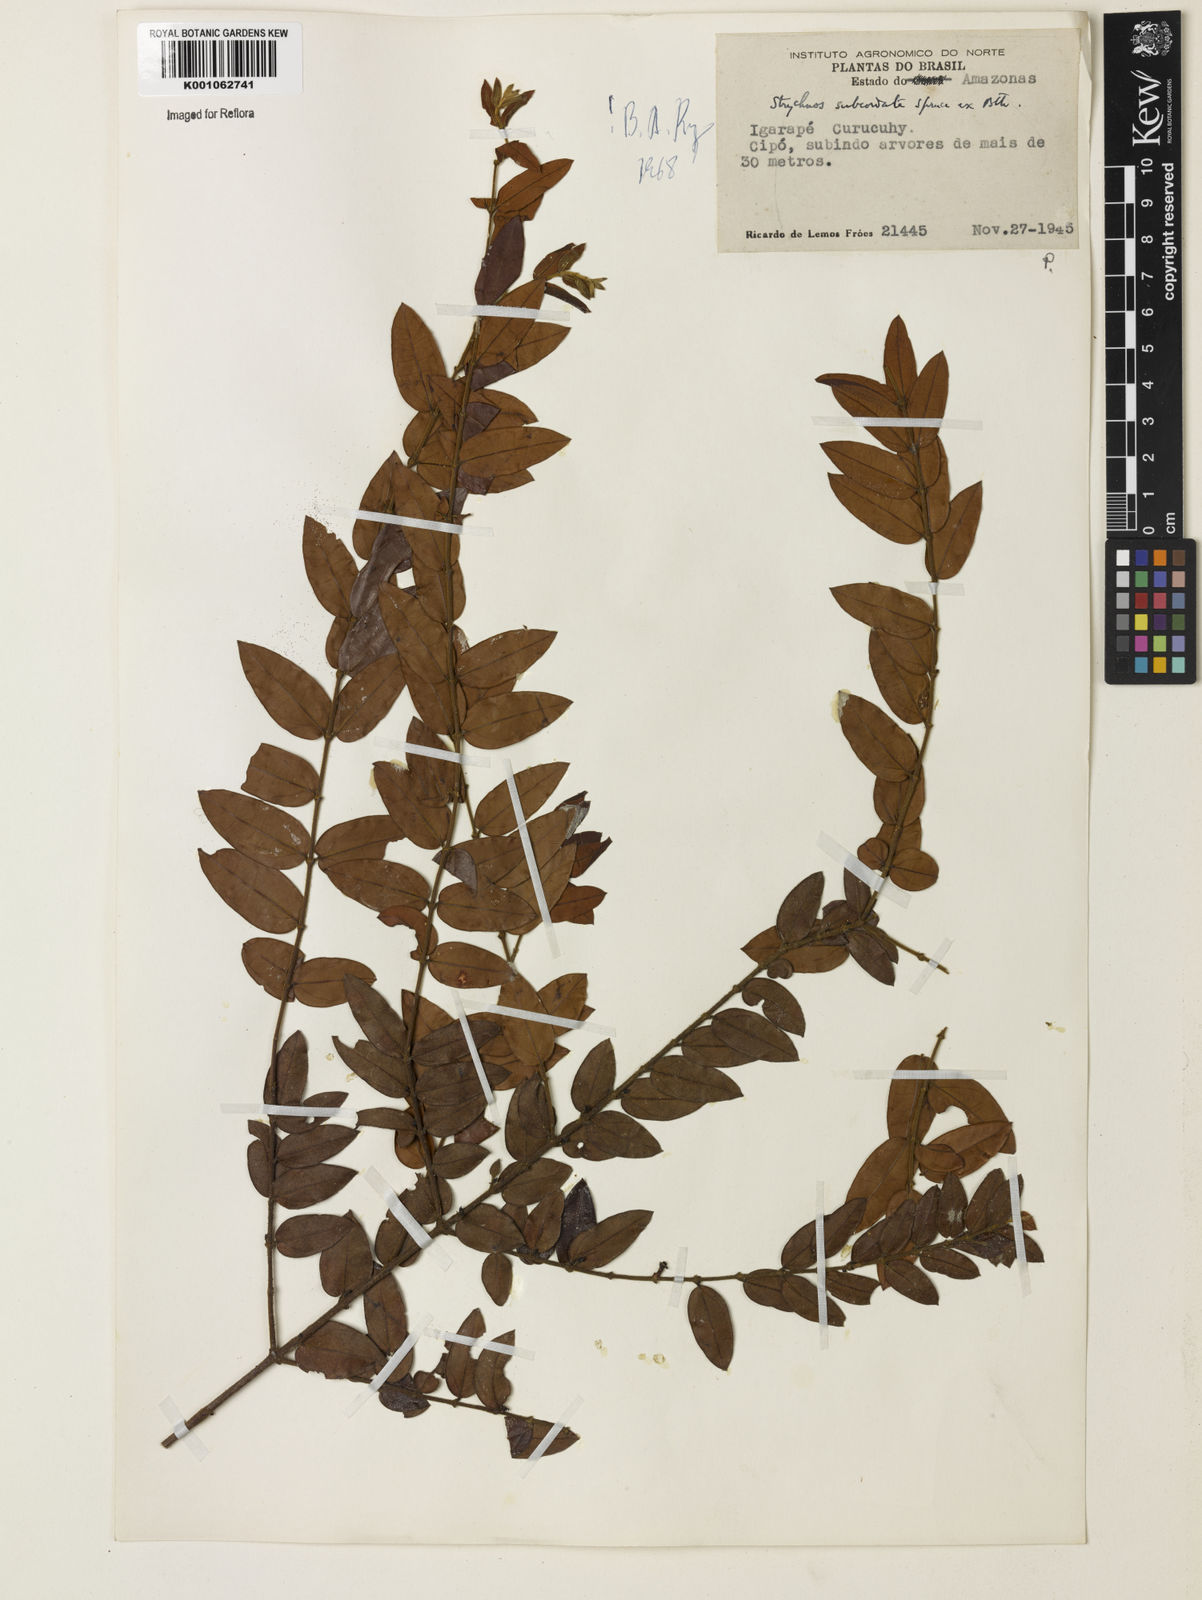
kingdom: Plantae
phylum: Tracheophyta
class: Magnoliopsida
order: Gentianales
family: Loganiaceae
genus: Strychnos
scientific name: Strychnos subcordata
